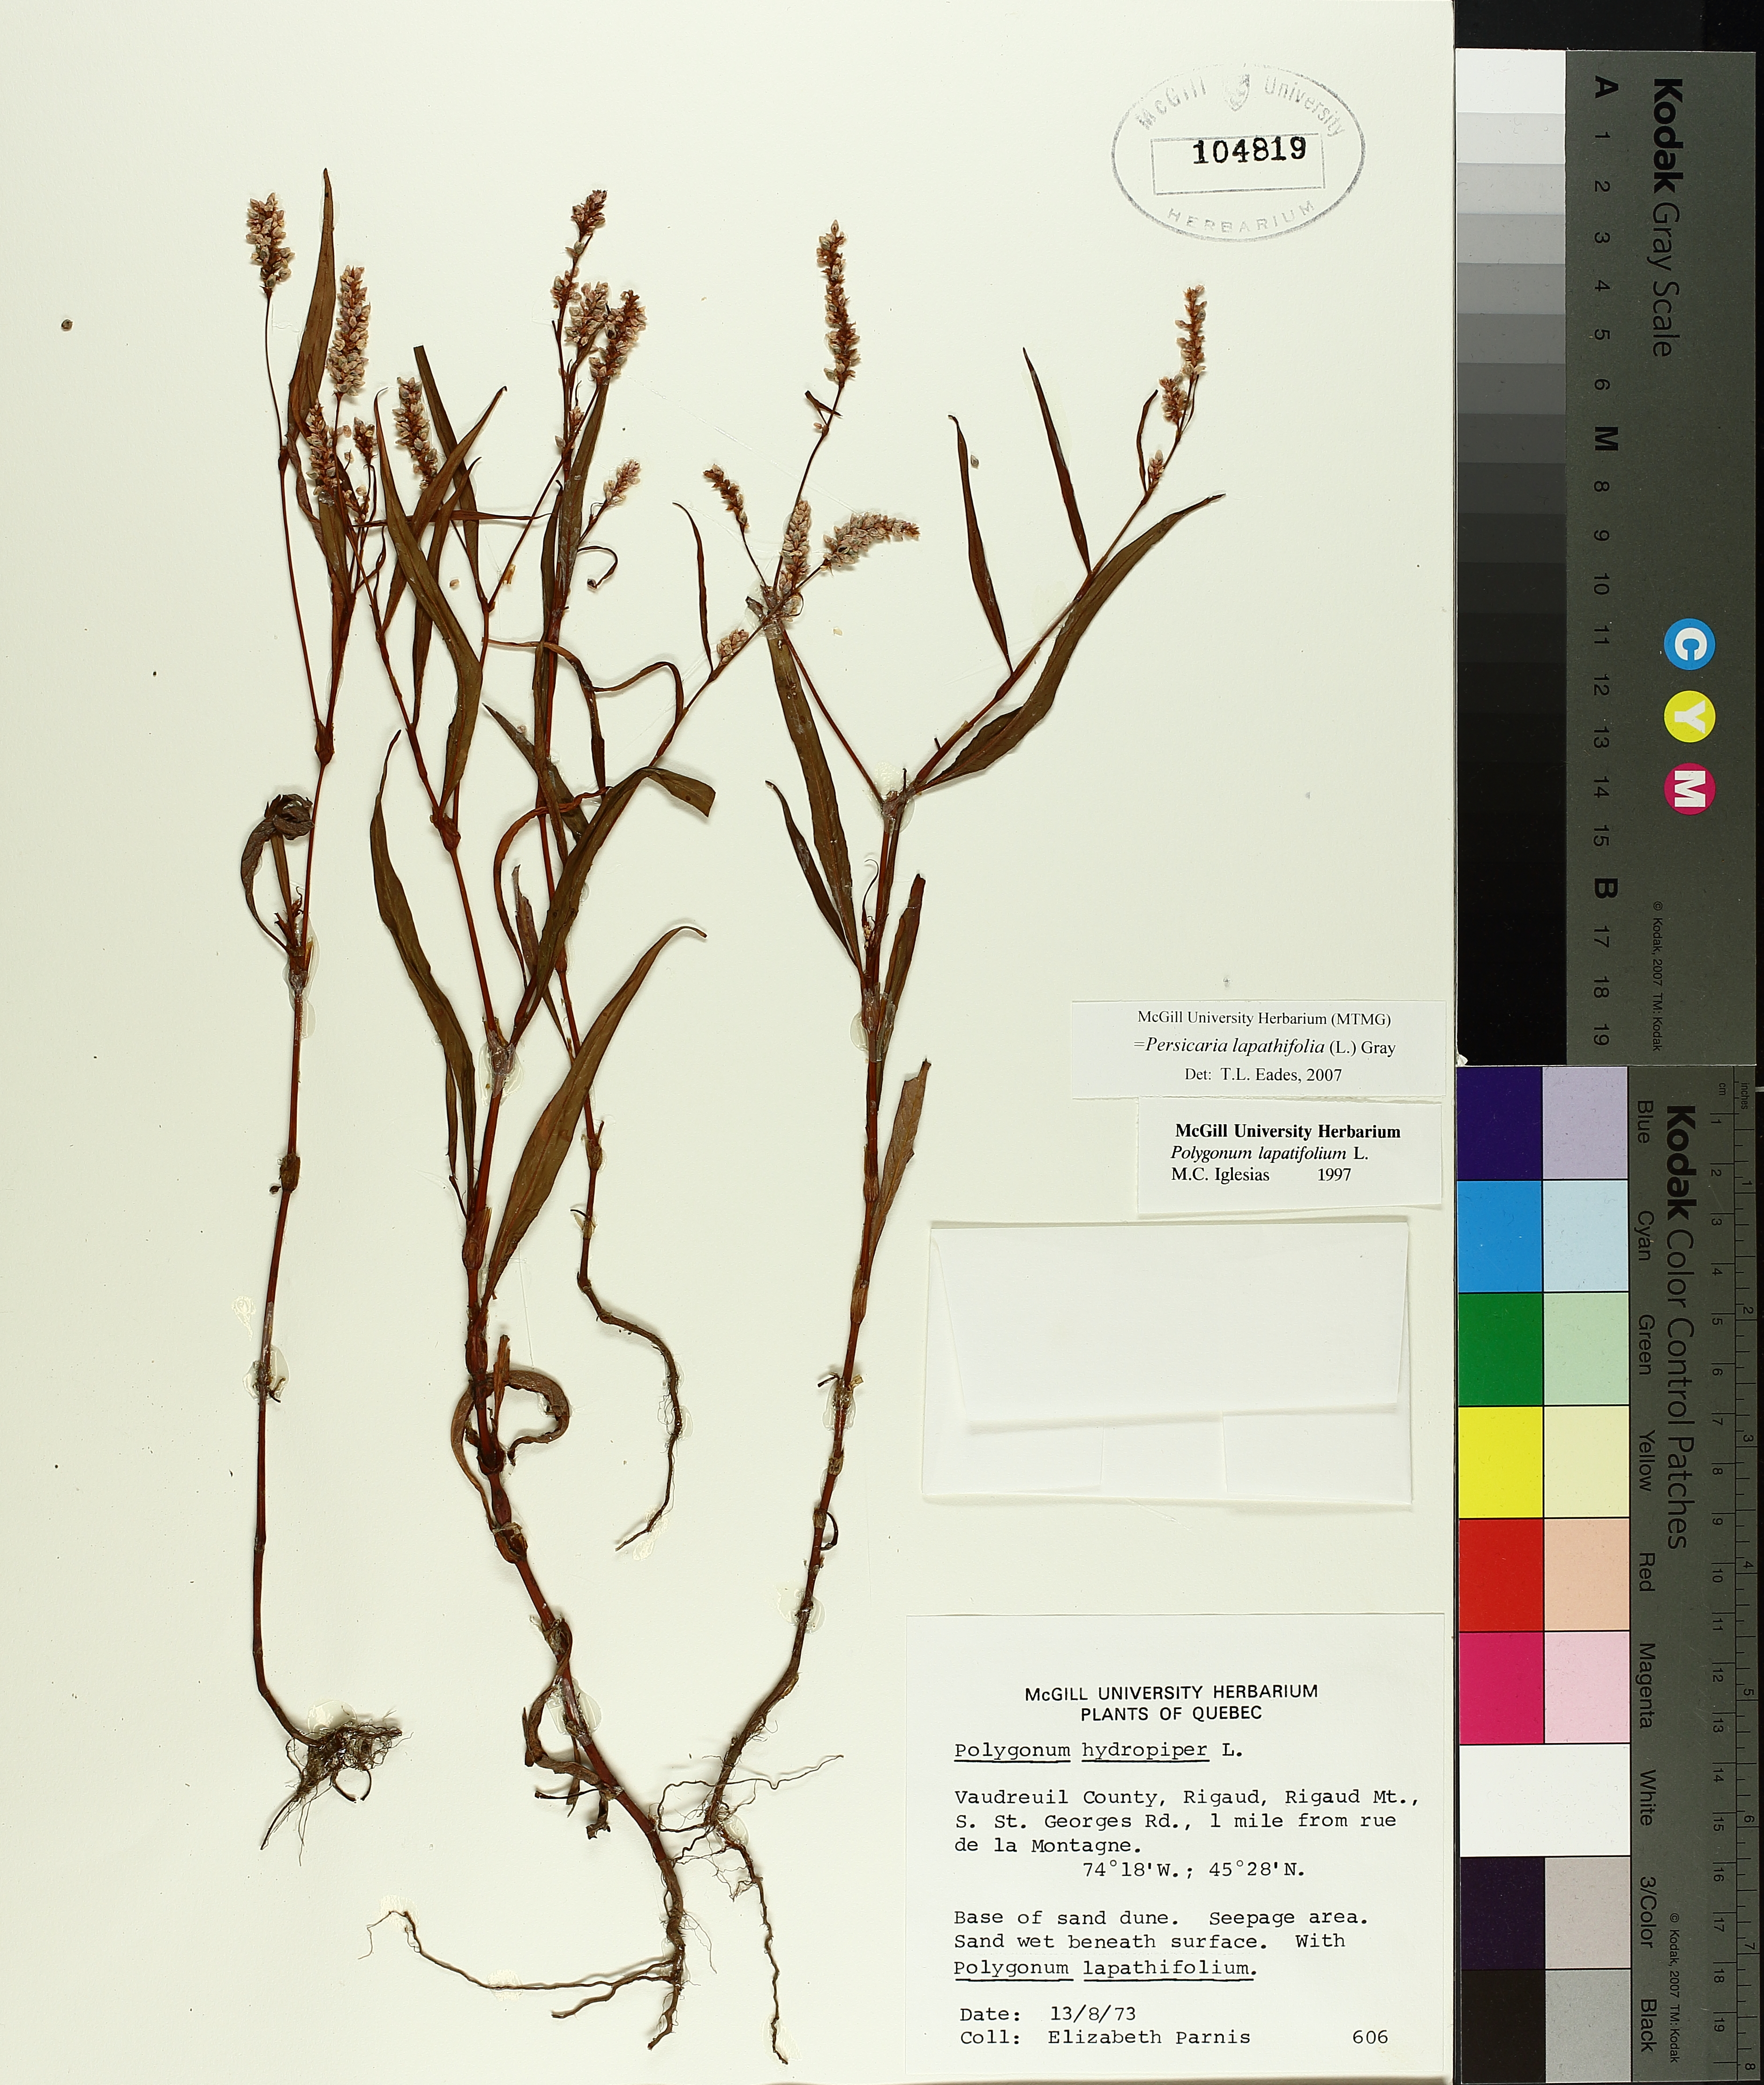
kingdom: Plantae
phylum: Tracheophyta
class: Magnoliopsida
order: Caryophyllales
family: Polygonaceae
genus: Persicaria
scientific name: Persicaria lapathifolia
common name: Curlytop knotweed
